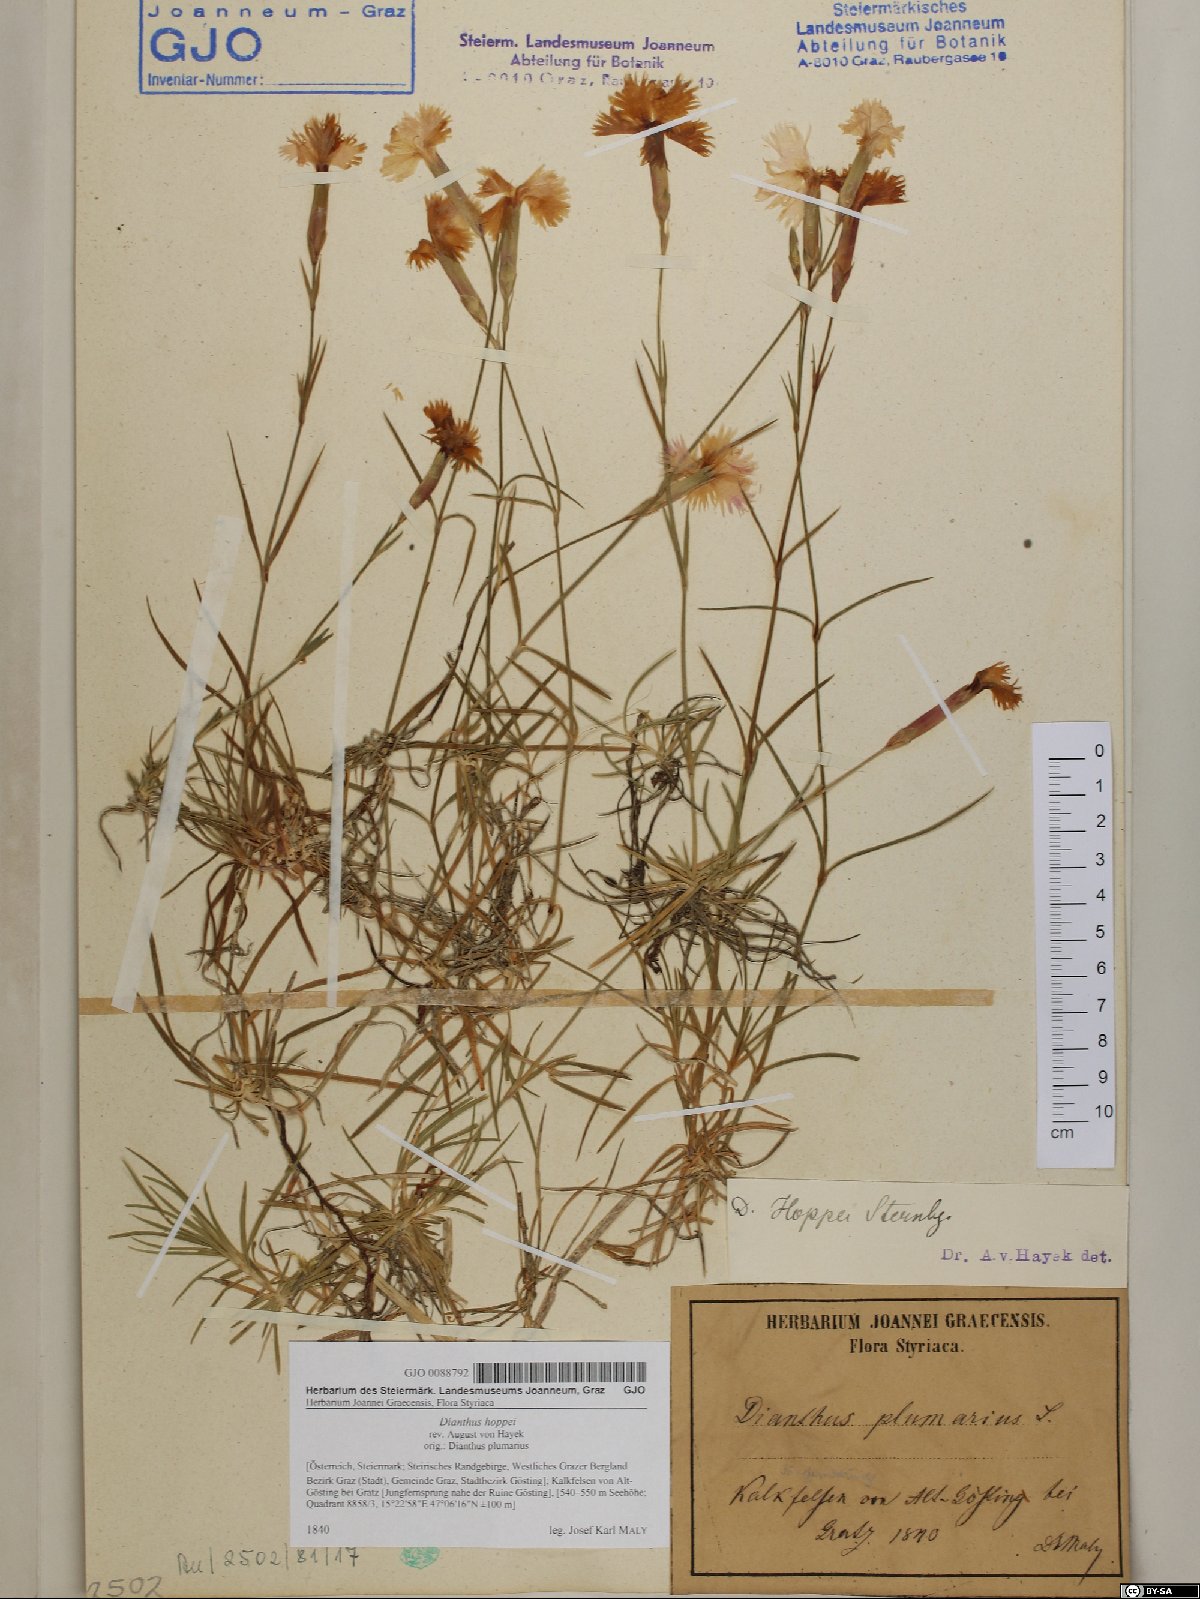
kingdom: Plantae
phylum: Tracheophyta
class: Magnoliopsida
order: Caryophyllales
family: Caryophyllaceae
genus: Dianthus
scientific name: Dianthus plumarius
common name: Pink
